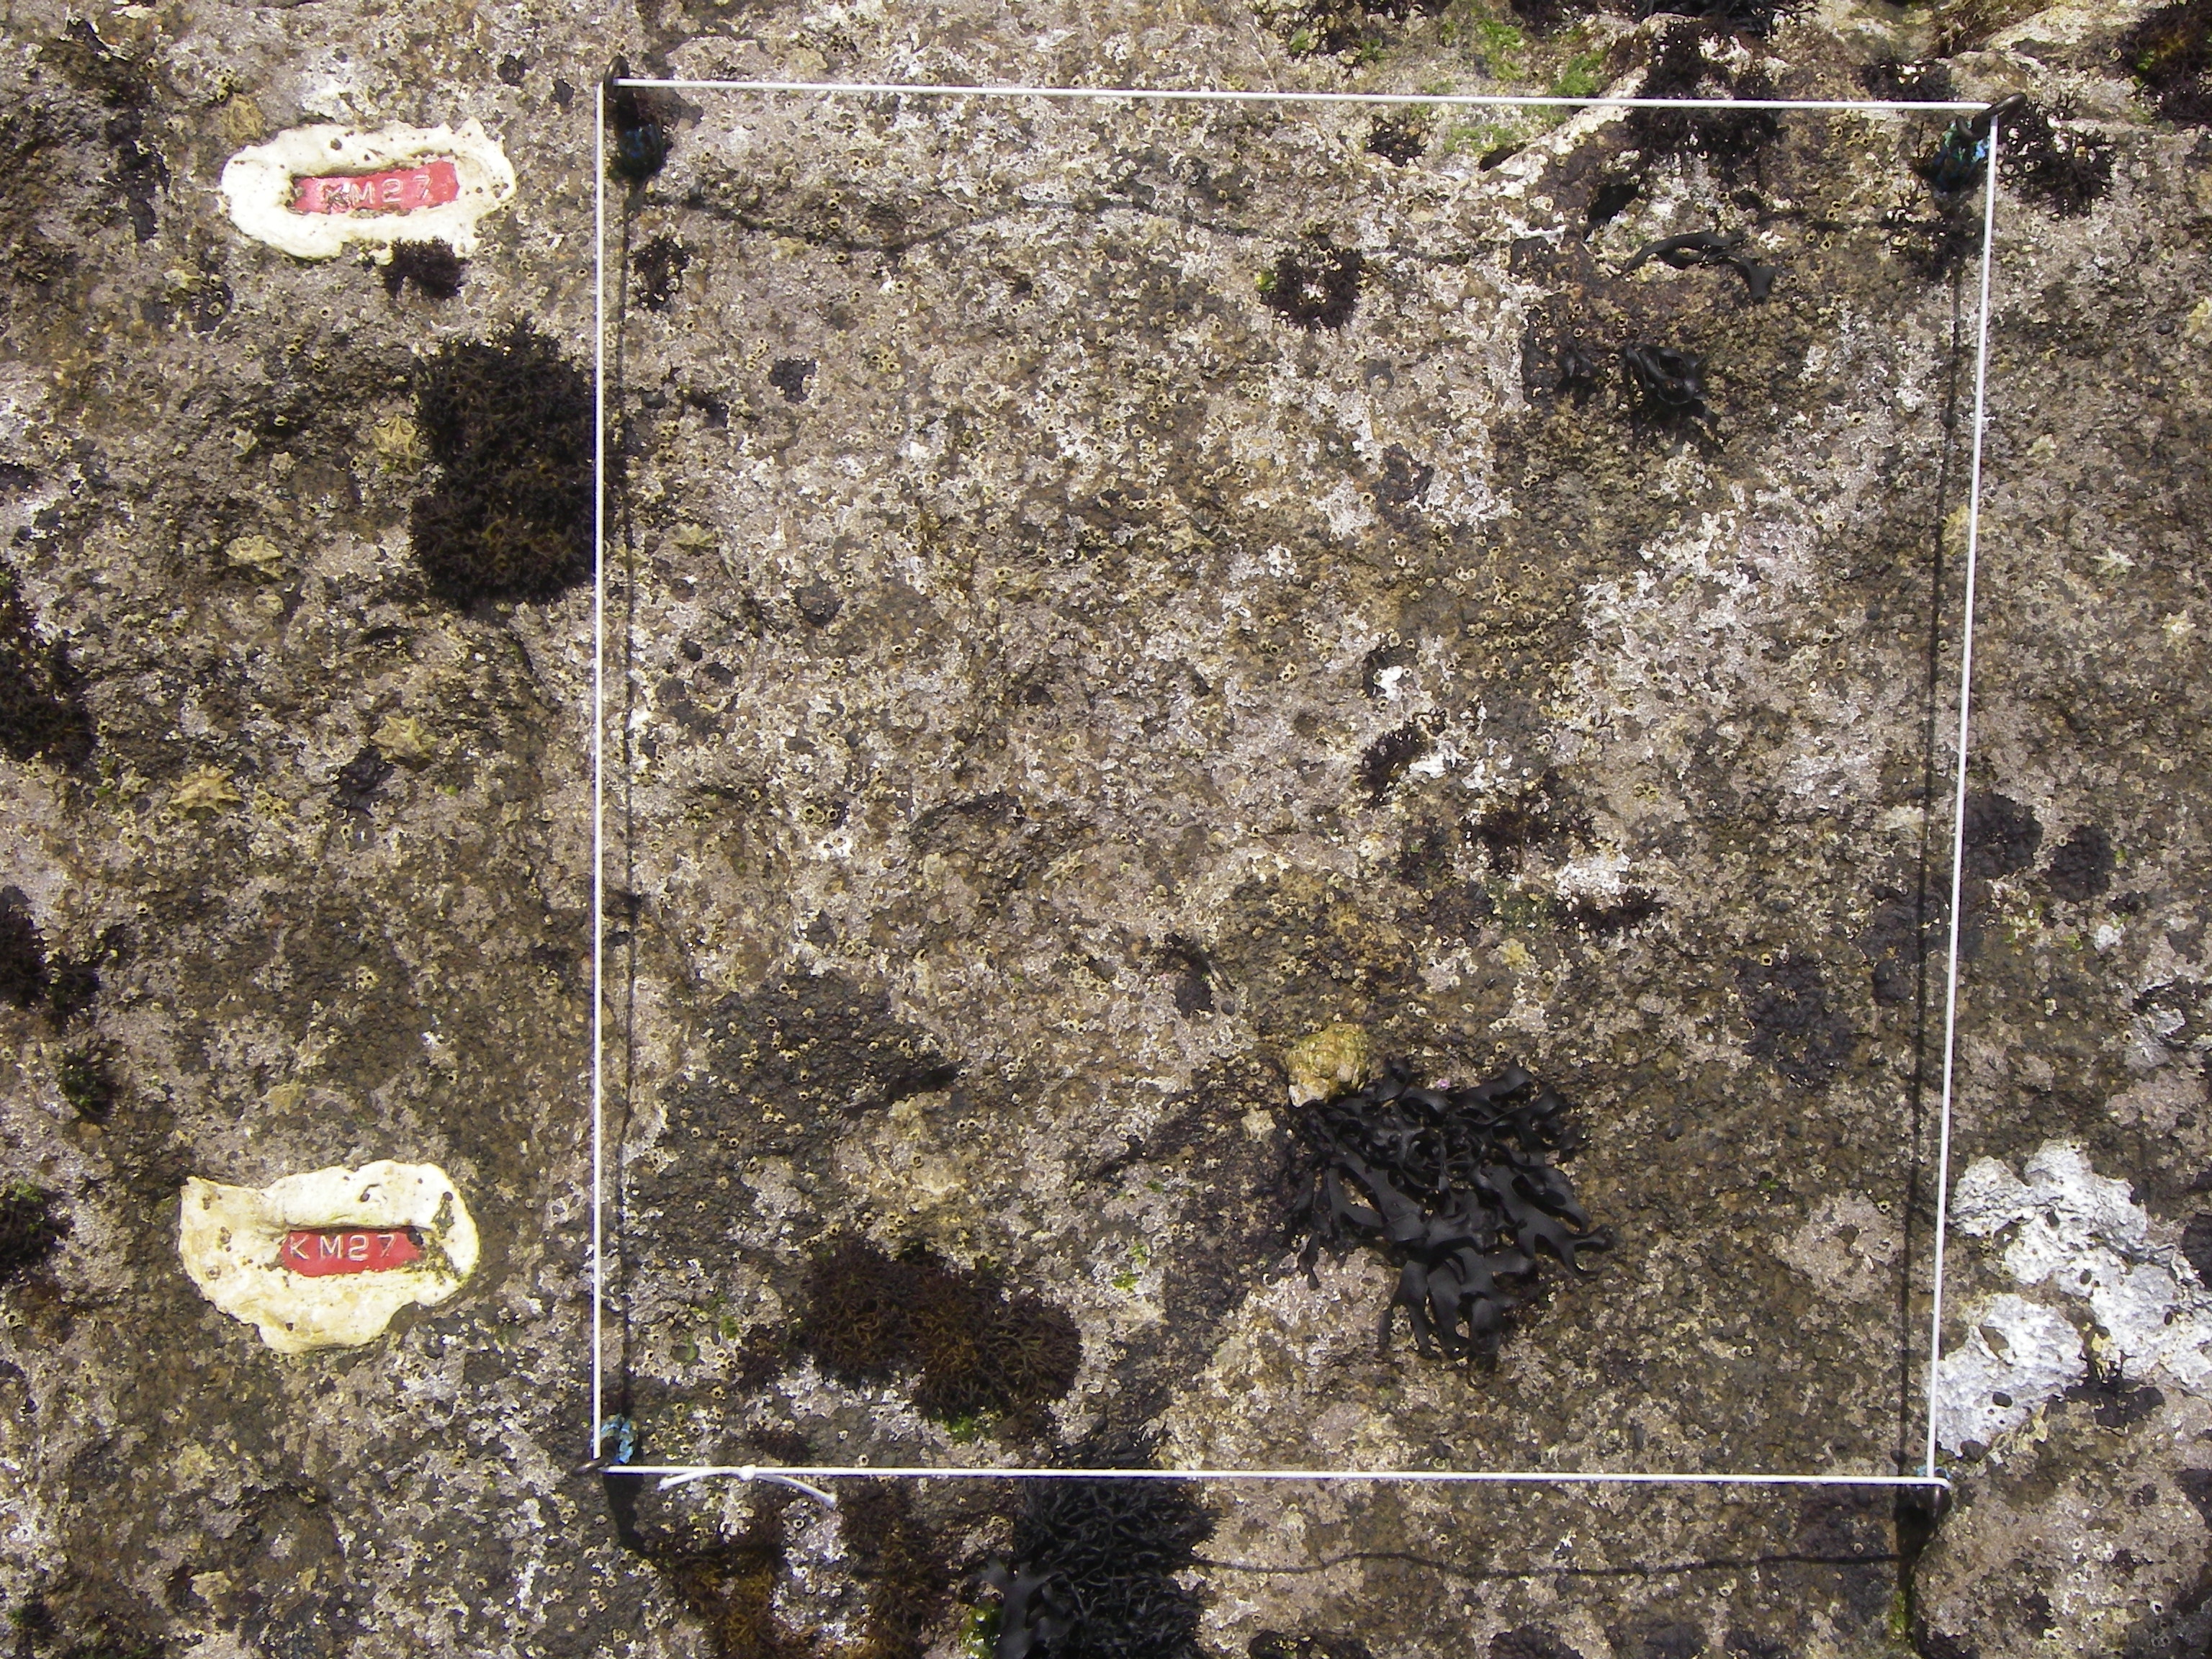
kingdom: Chromista
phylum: Ochrophyta
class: Phaeophyceae
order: Fucales
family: Sargassaceae
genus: Sargassum
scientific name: Sargassum fusiforme
